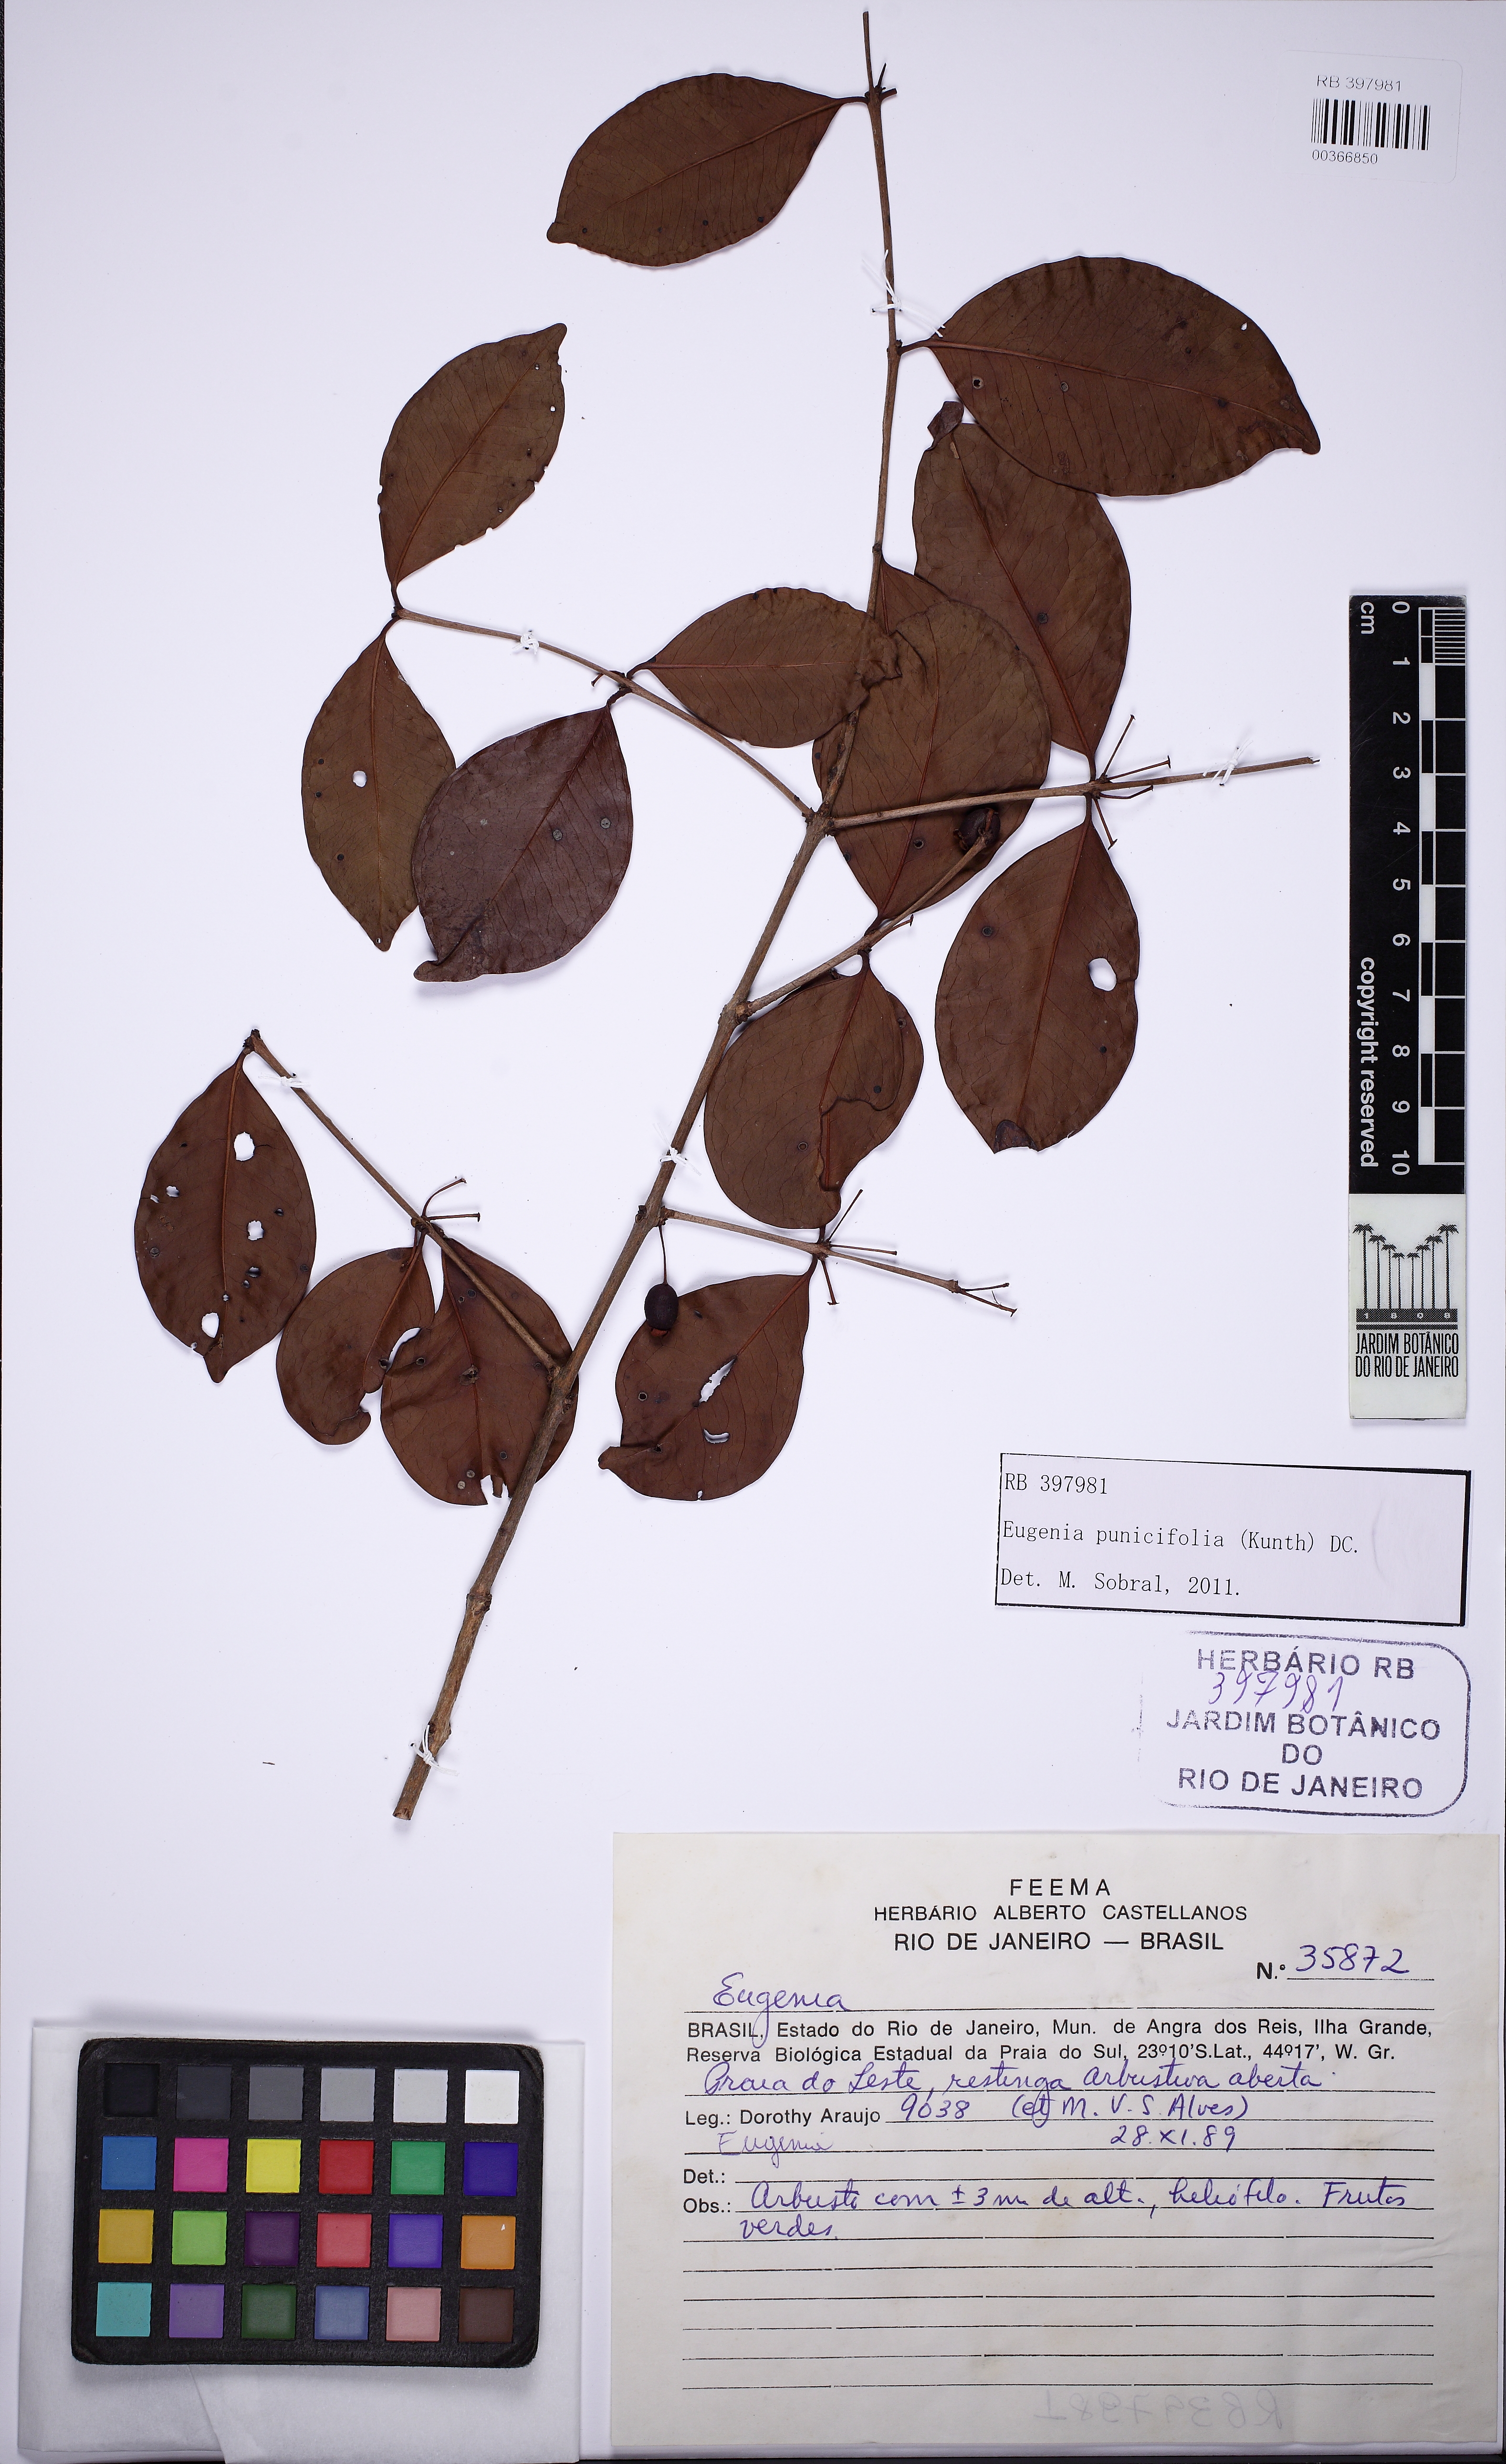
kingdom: Plantae
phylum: Tracheophyta
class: Magnoliopsida
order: Myrtales
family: Myrtaceae
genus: Eugenia
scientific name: Eugenia punicifolia
